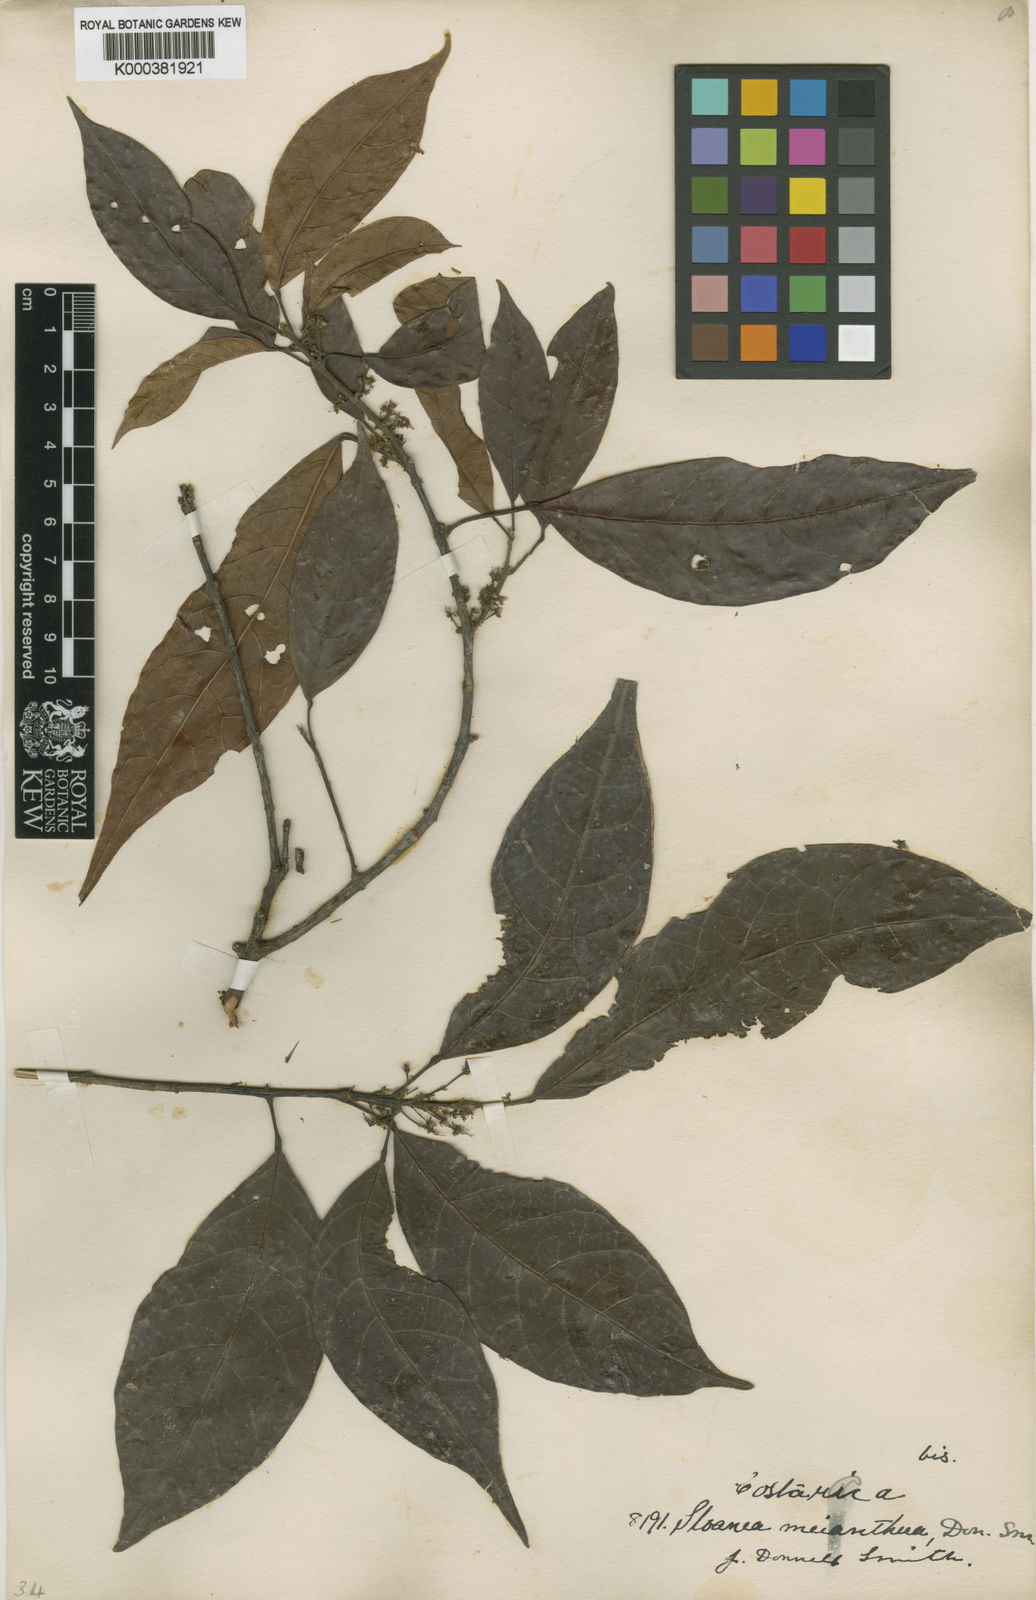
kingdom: Plantae
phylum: Tracheophyta
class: Magnoliopsida
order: Oxalidales
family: Elaeocarpaceae
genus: Sloanea
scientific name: Sloanea meianthera
